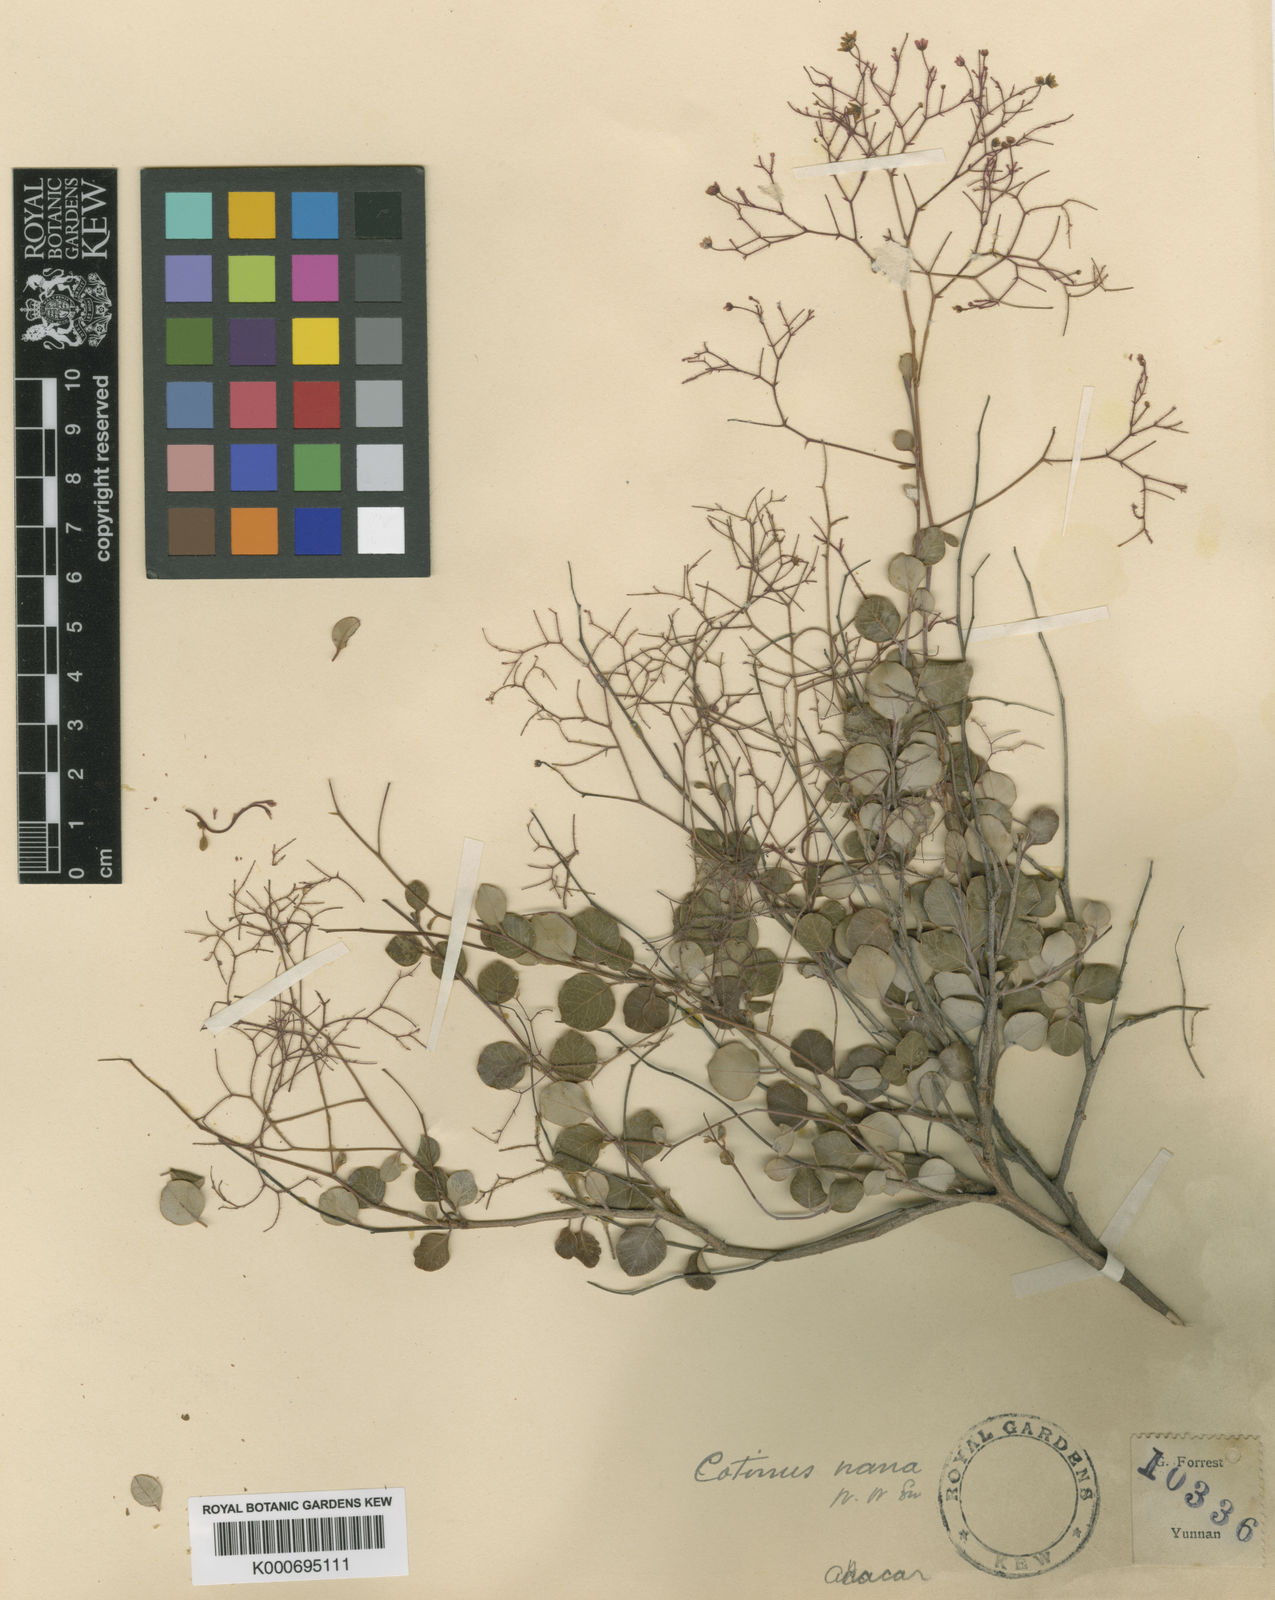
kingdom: Plantae
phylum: Tracheophyta
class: Magnoliopsida
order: Sapindales
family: Anacardiaceae
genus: Cotinus
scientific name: Cotinus
